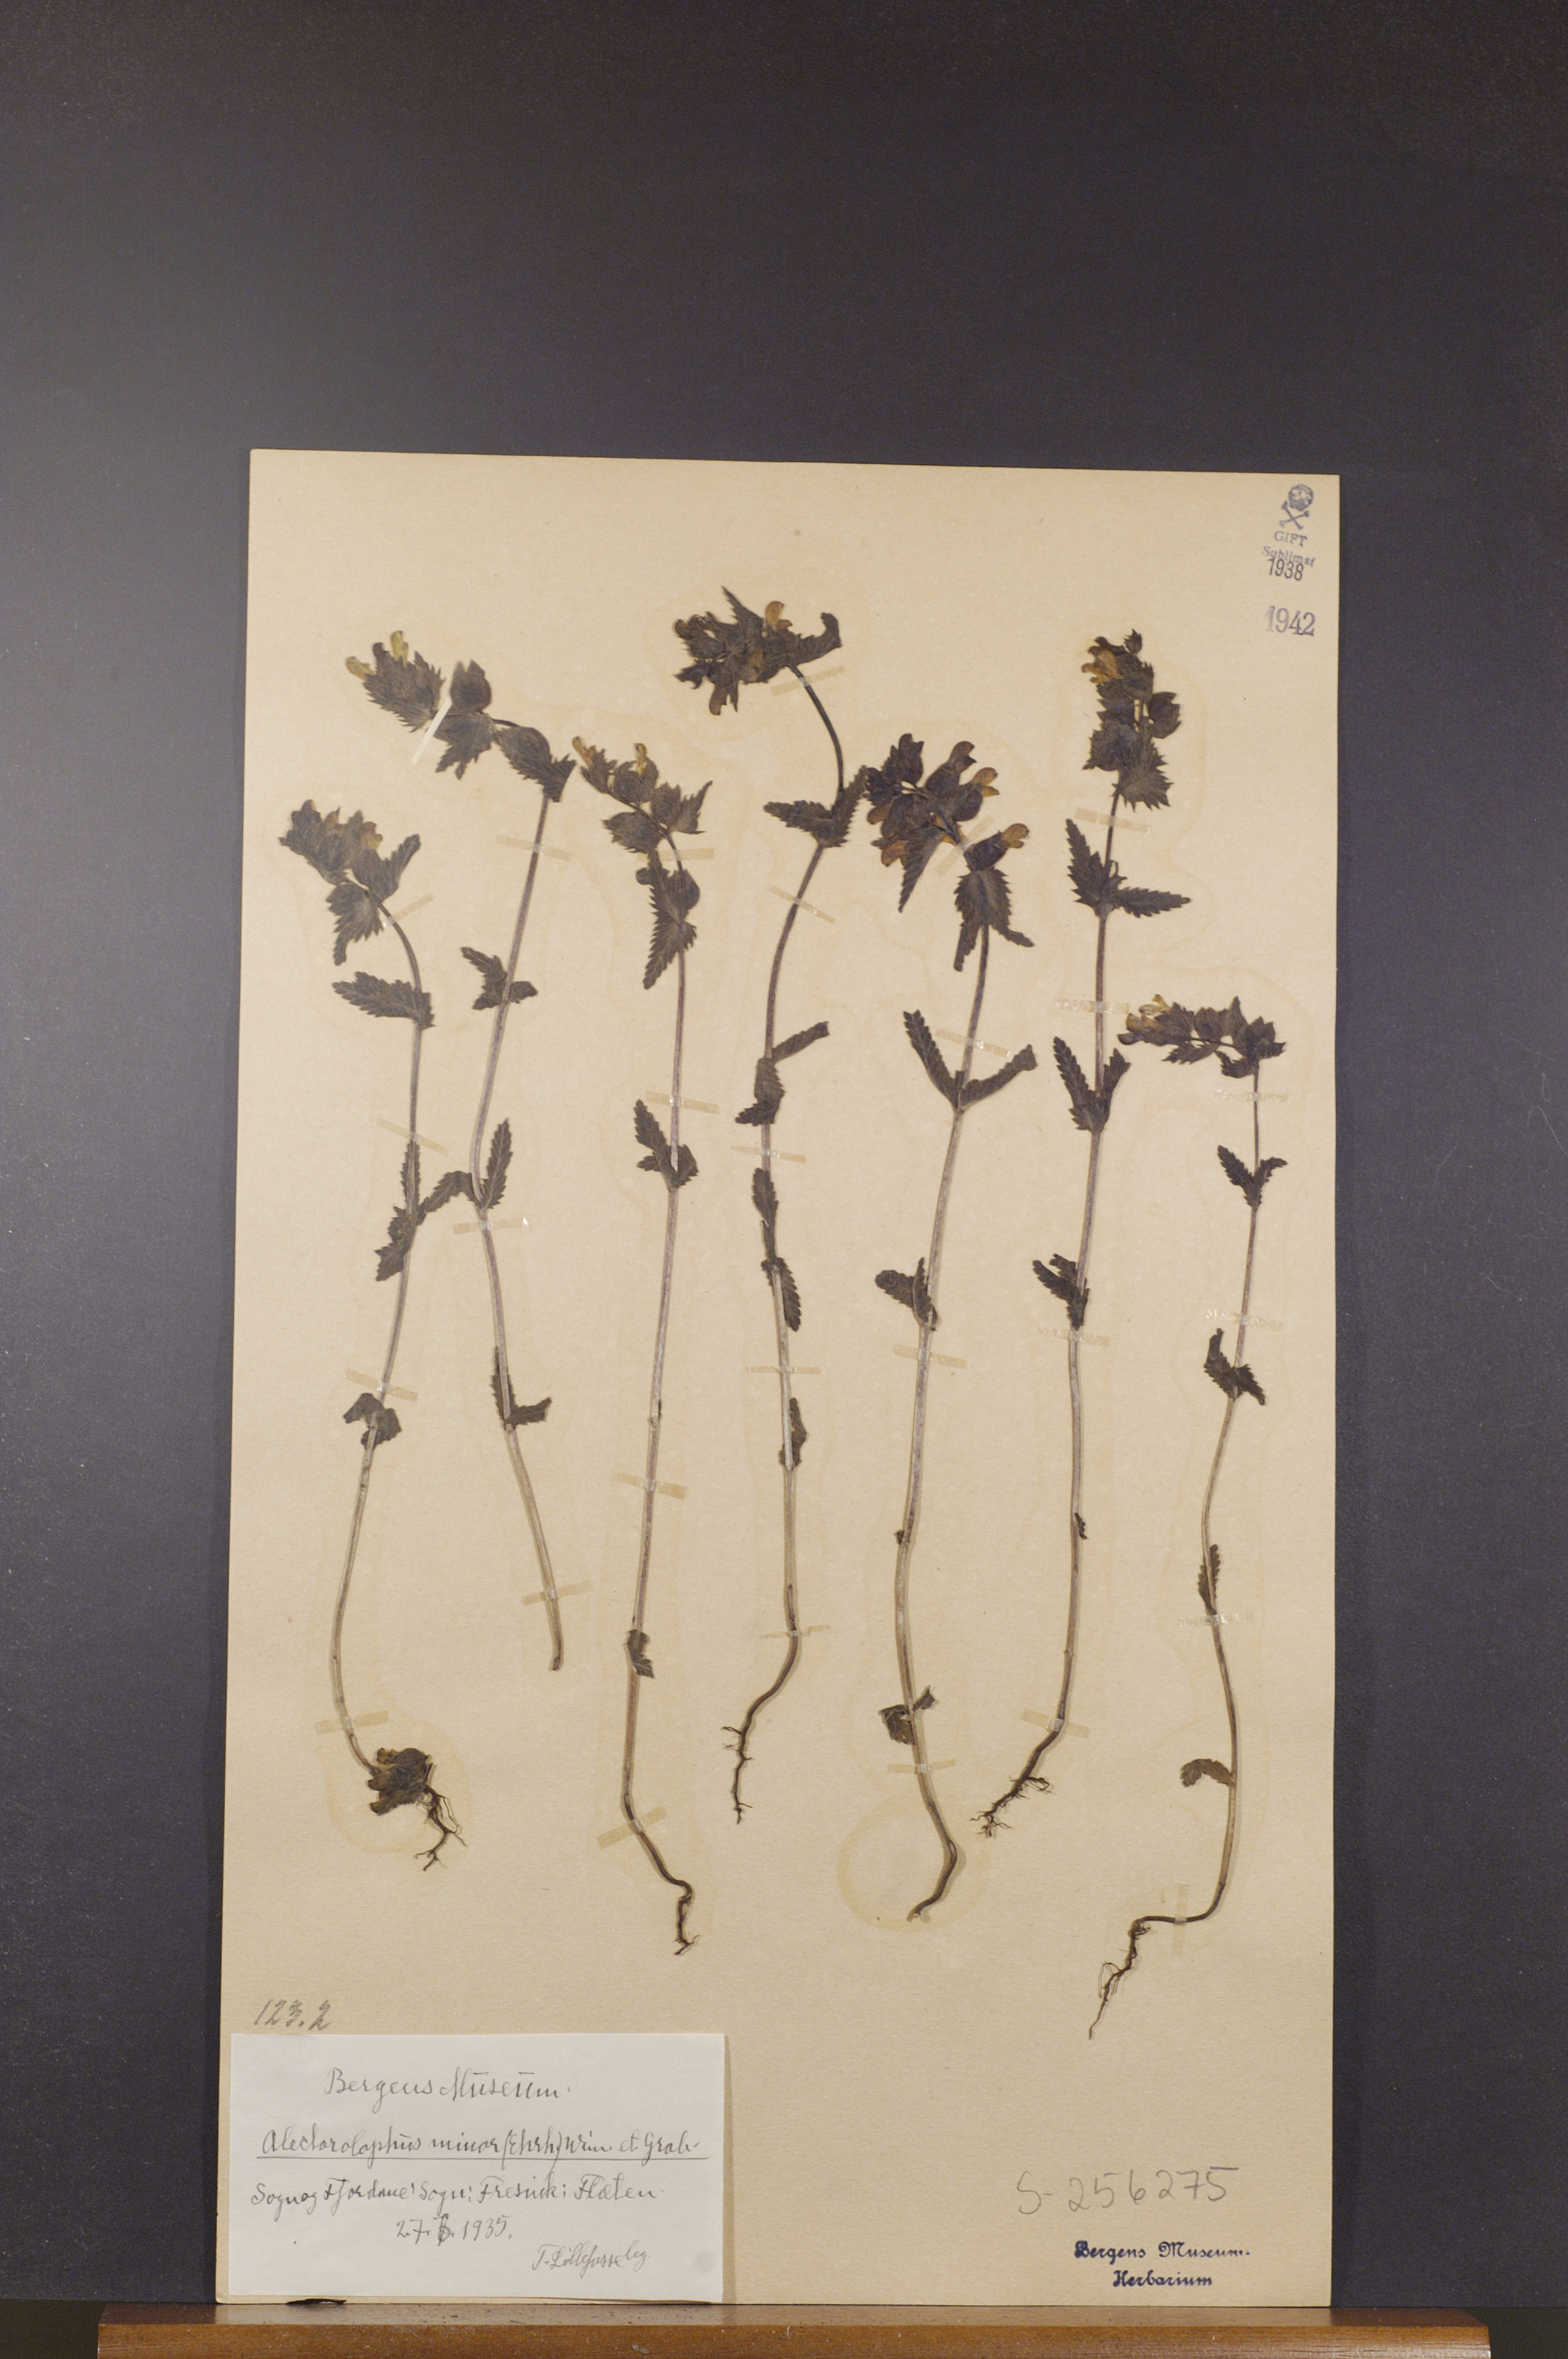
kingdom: Plantae
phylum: Tracheophyta
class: Magnoliopsida
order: Lamiales
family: Orobanchaceae
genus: Rhinanthus
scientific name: Rhinanthus minor
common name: Yellow-rattle
